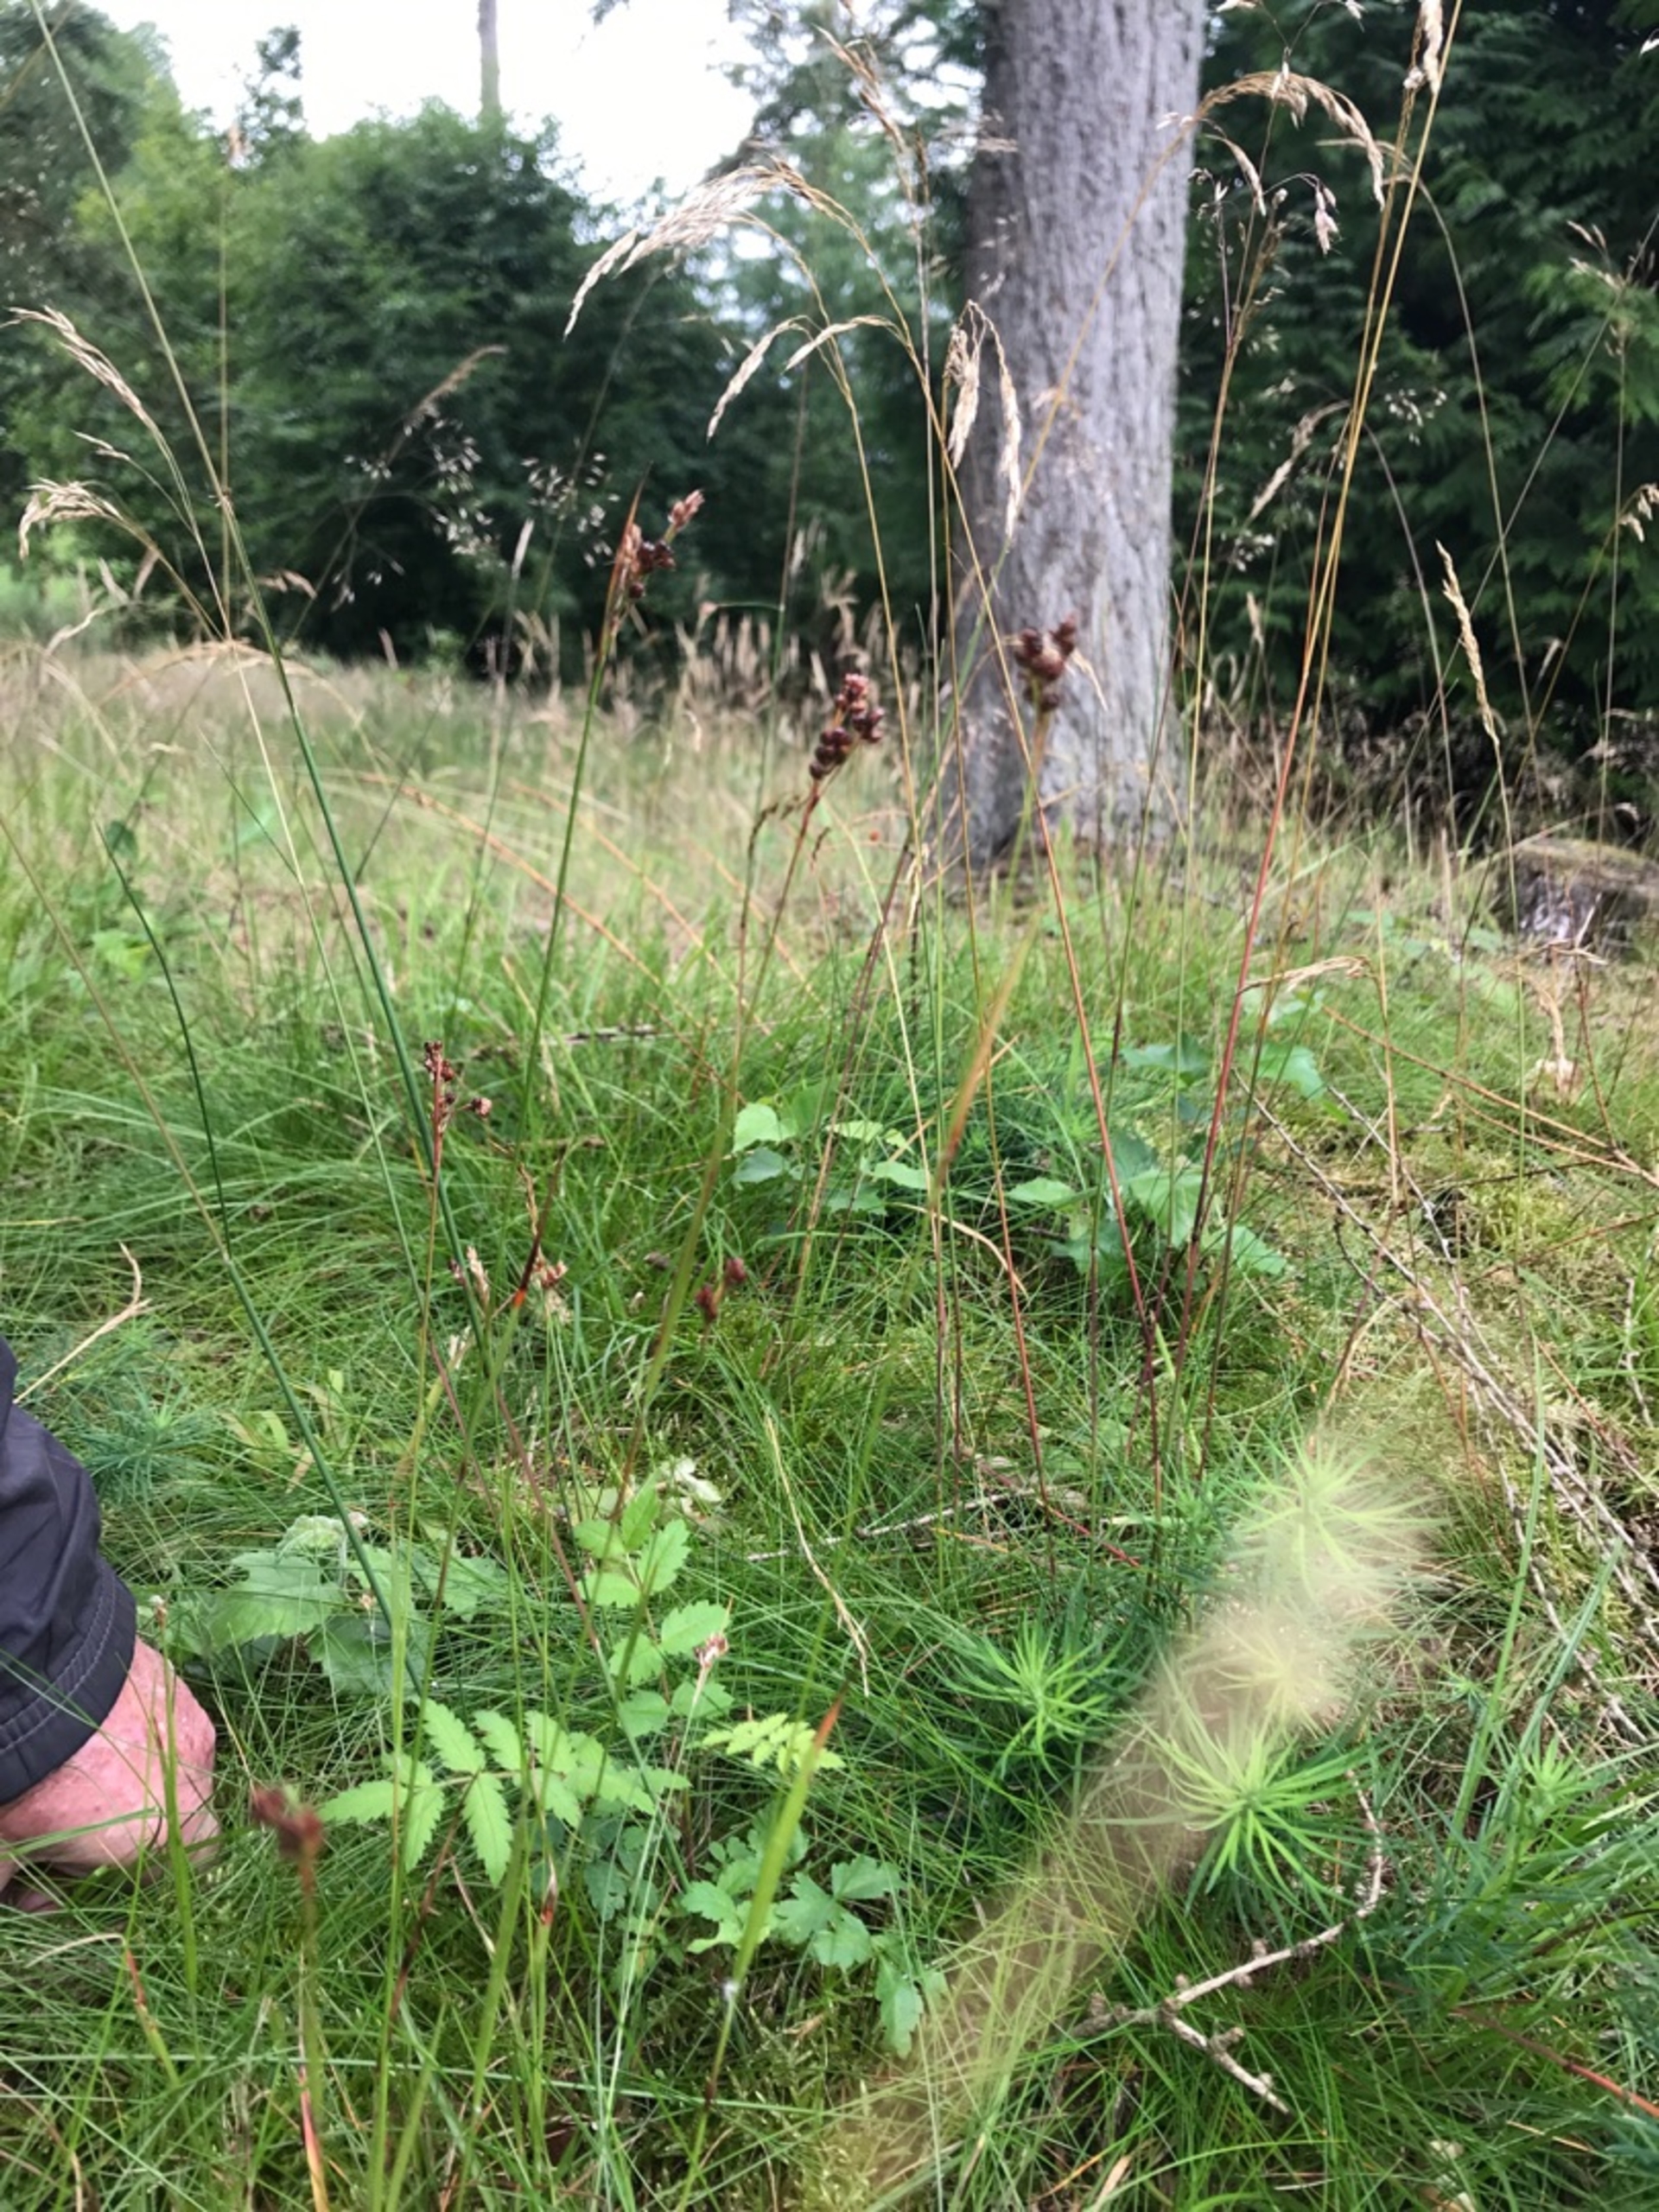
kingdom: Plantae
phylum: Tracheophyta
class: Liliopsida
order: Poales
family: Juncaceae
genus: Luzula
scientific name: Luzula multiflora
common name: Mangeblomstret frytle
